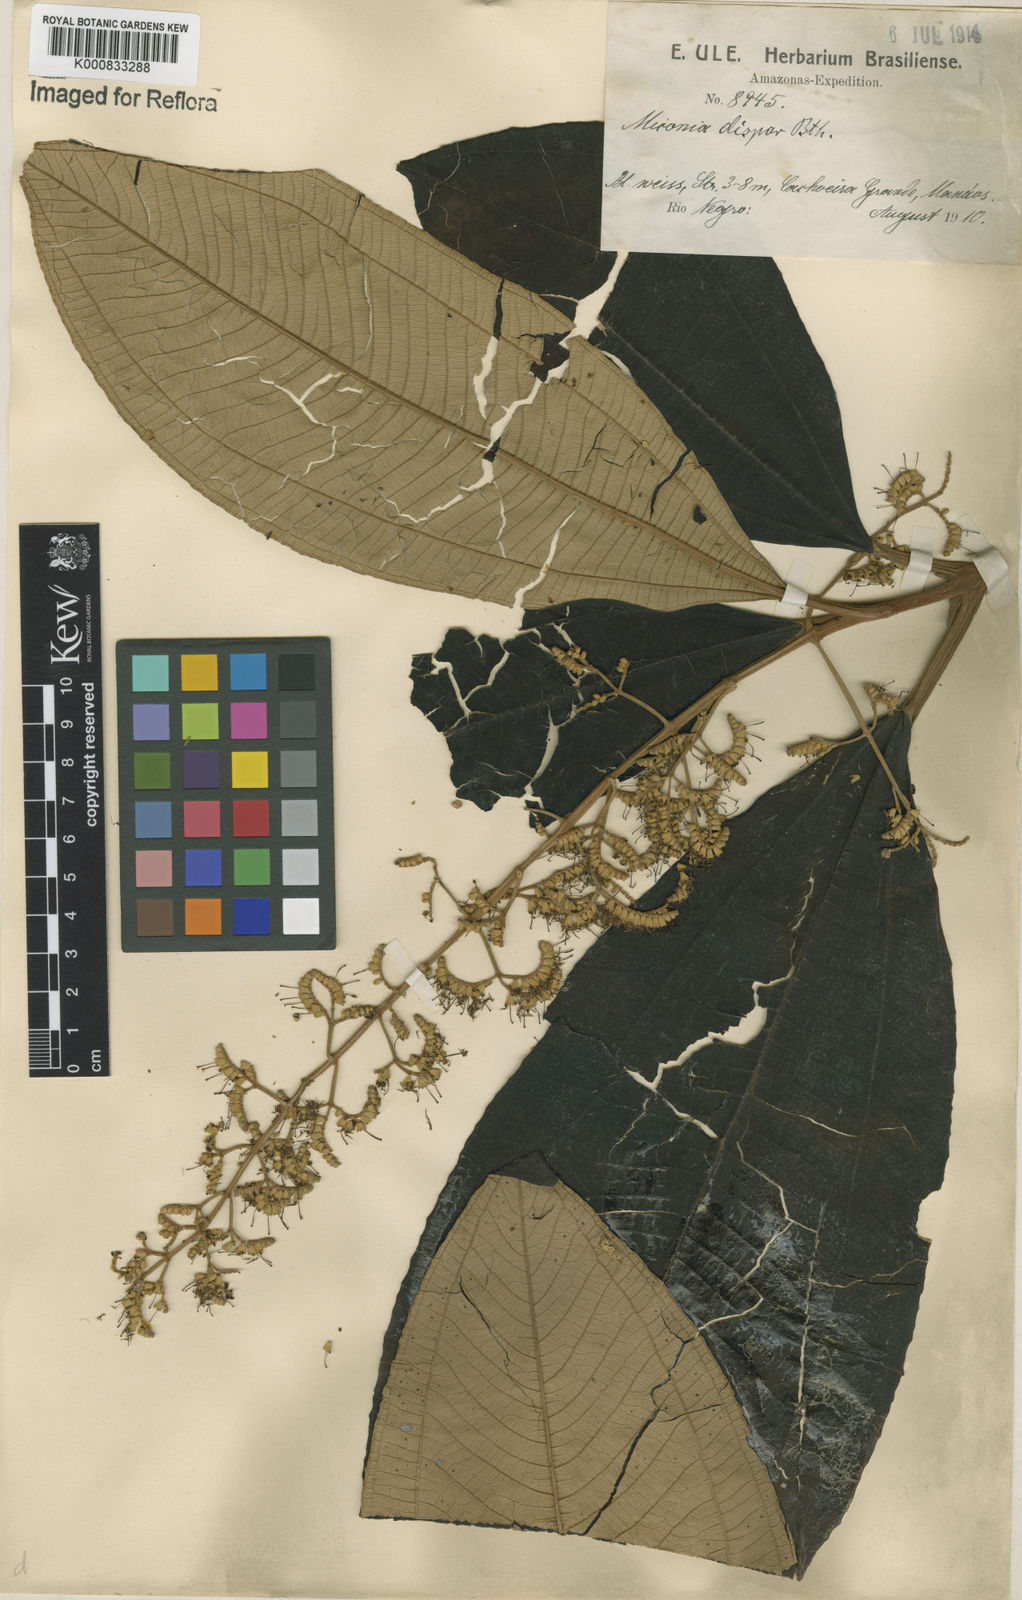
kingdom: Plantae
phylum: Tracheophyta
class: Magnoliopsida
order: Myrtales
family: Melastomataceae
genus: Miconia
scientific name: Miconia dispar
